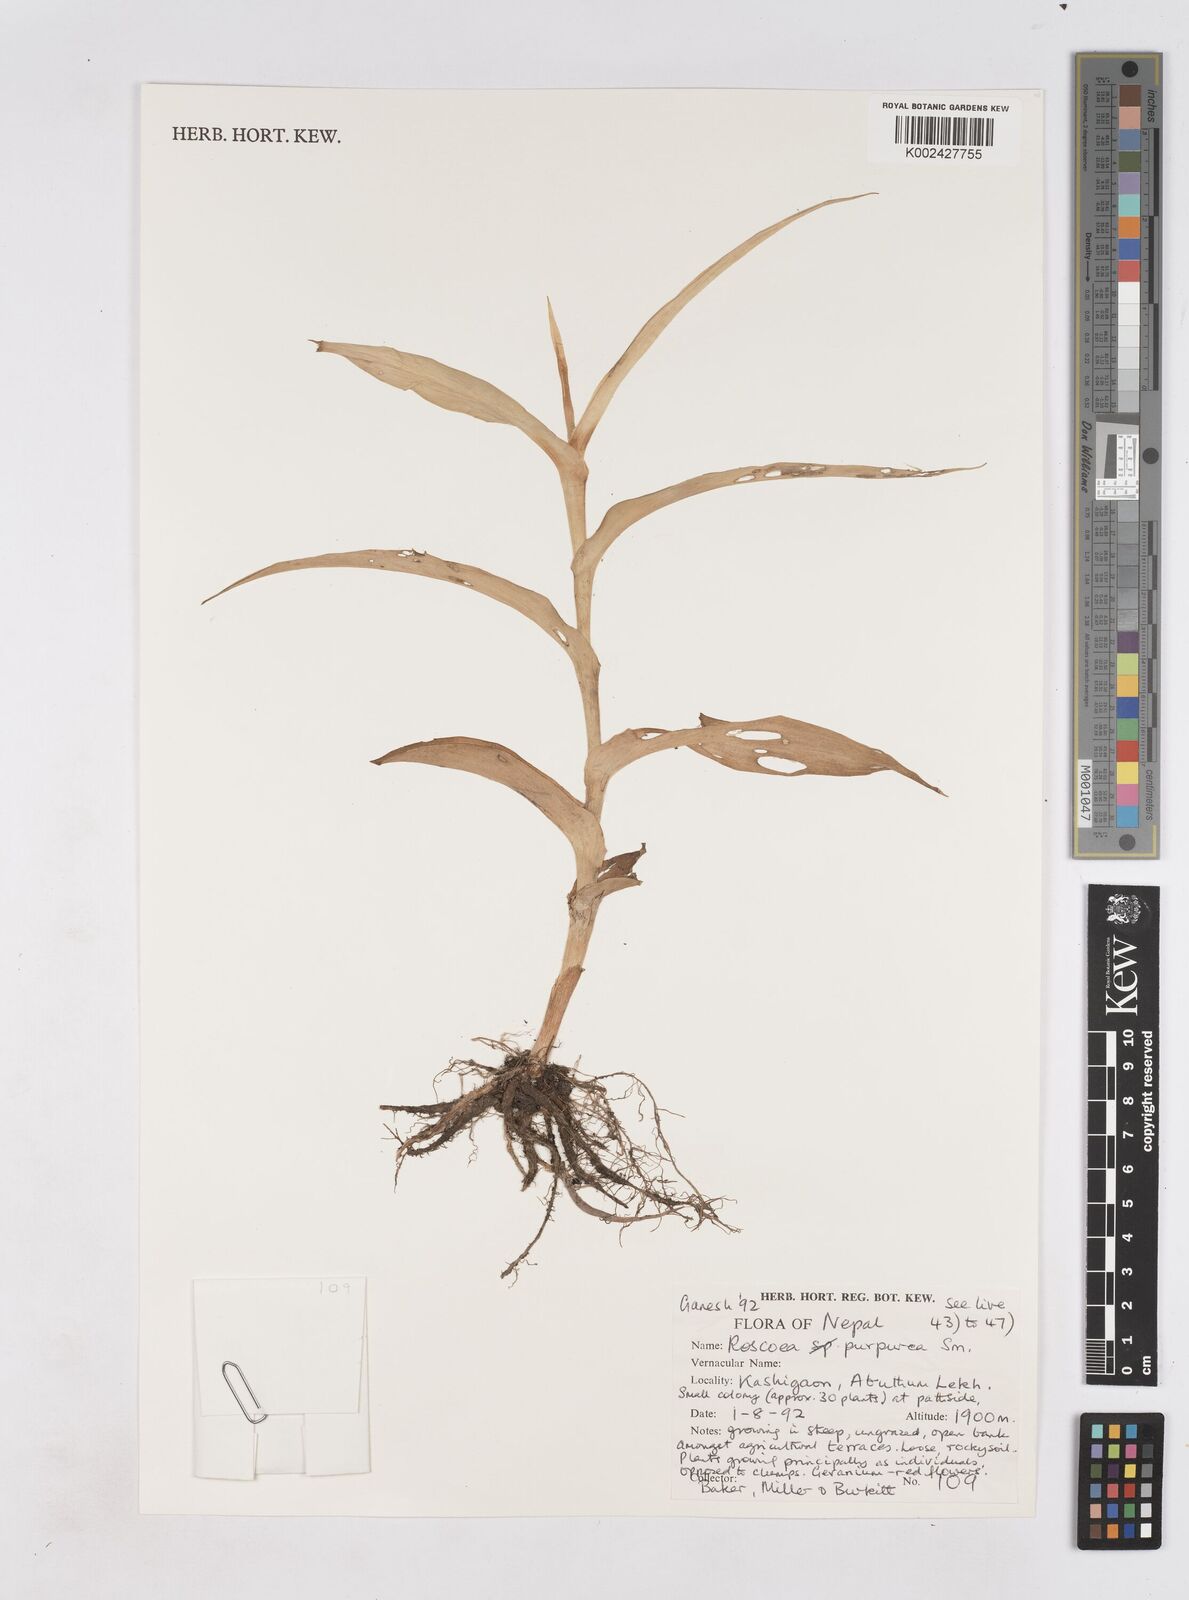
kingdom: Plantae
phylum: Tracheophyta
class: Liliopsida
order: Zingiberales
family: Zingiberaceae
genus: Roscoea
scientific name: Roscoea purpurea
